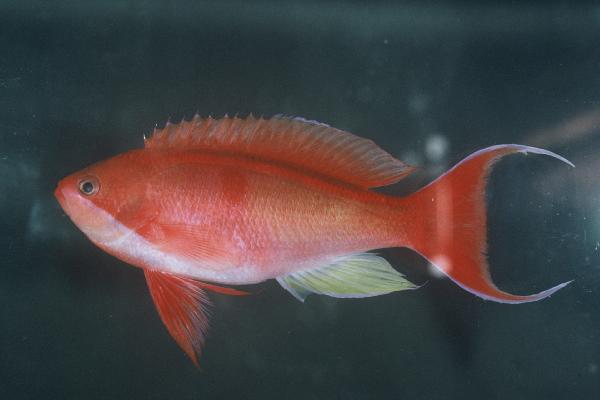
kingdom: Animalia
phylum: Chordata
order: Perciformes
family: Serranidae
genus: Pseudanthias
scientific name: Pseudanthias cooperi
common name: Red basslet
